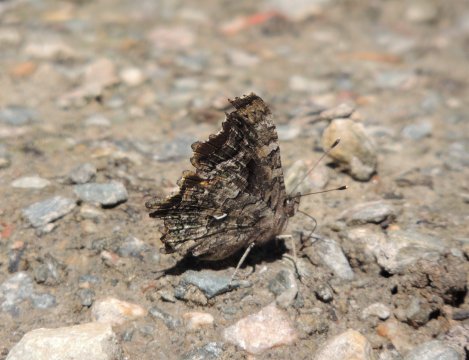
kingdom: Animalia
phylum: Arthropoda
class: Insecta
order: Lepidoptera
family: Nymphalidae
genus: Polygonia
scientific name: Polygonia faunus
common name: Green Comma
